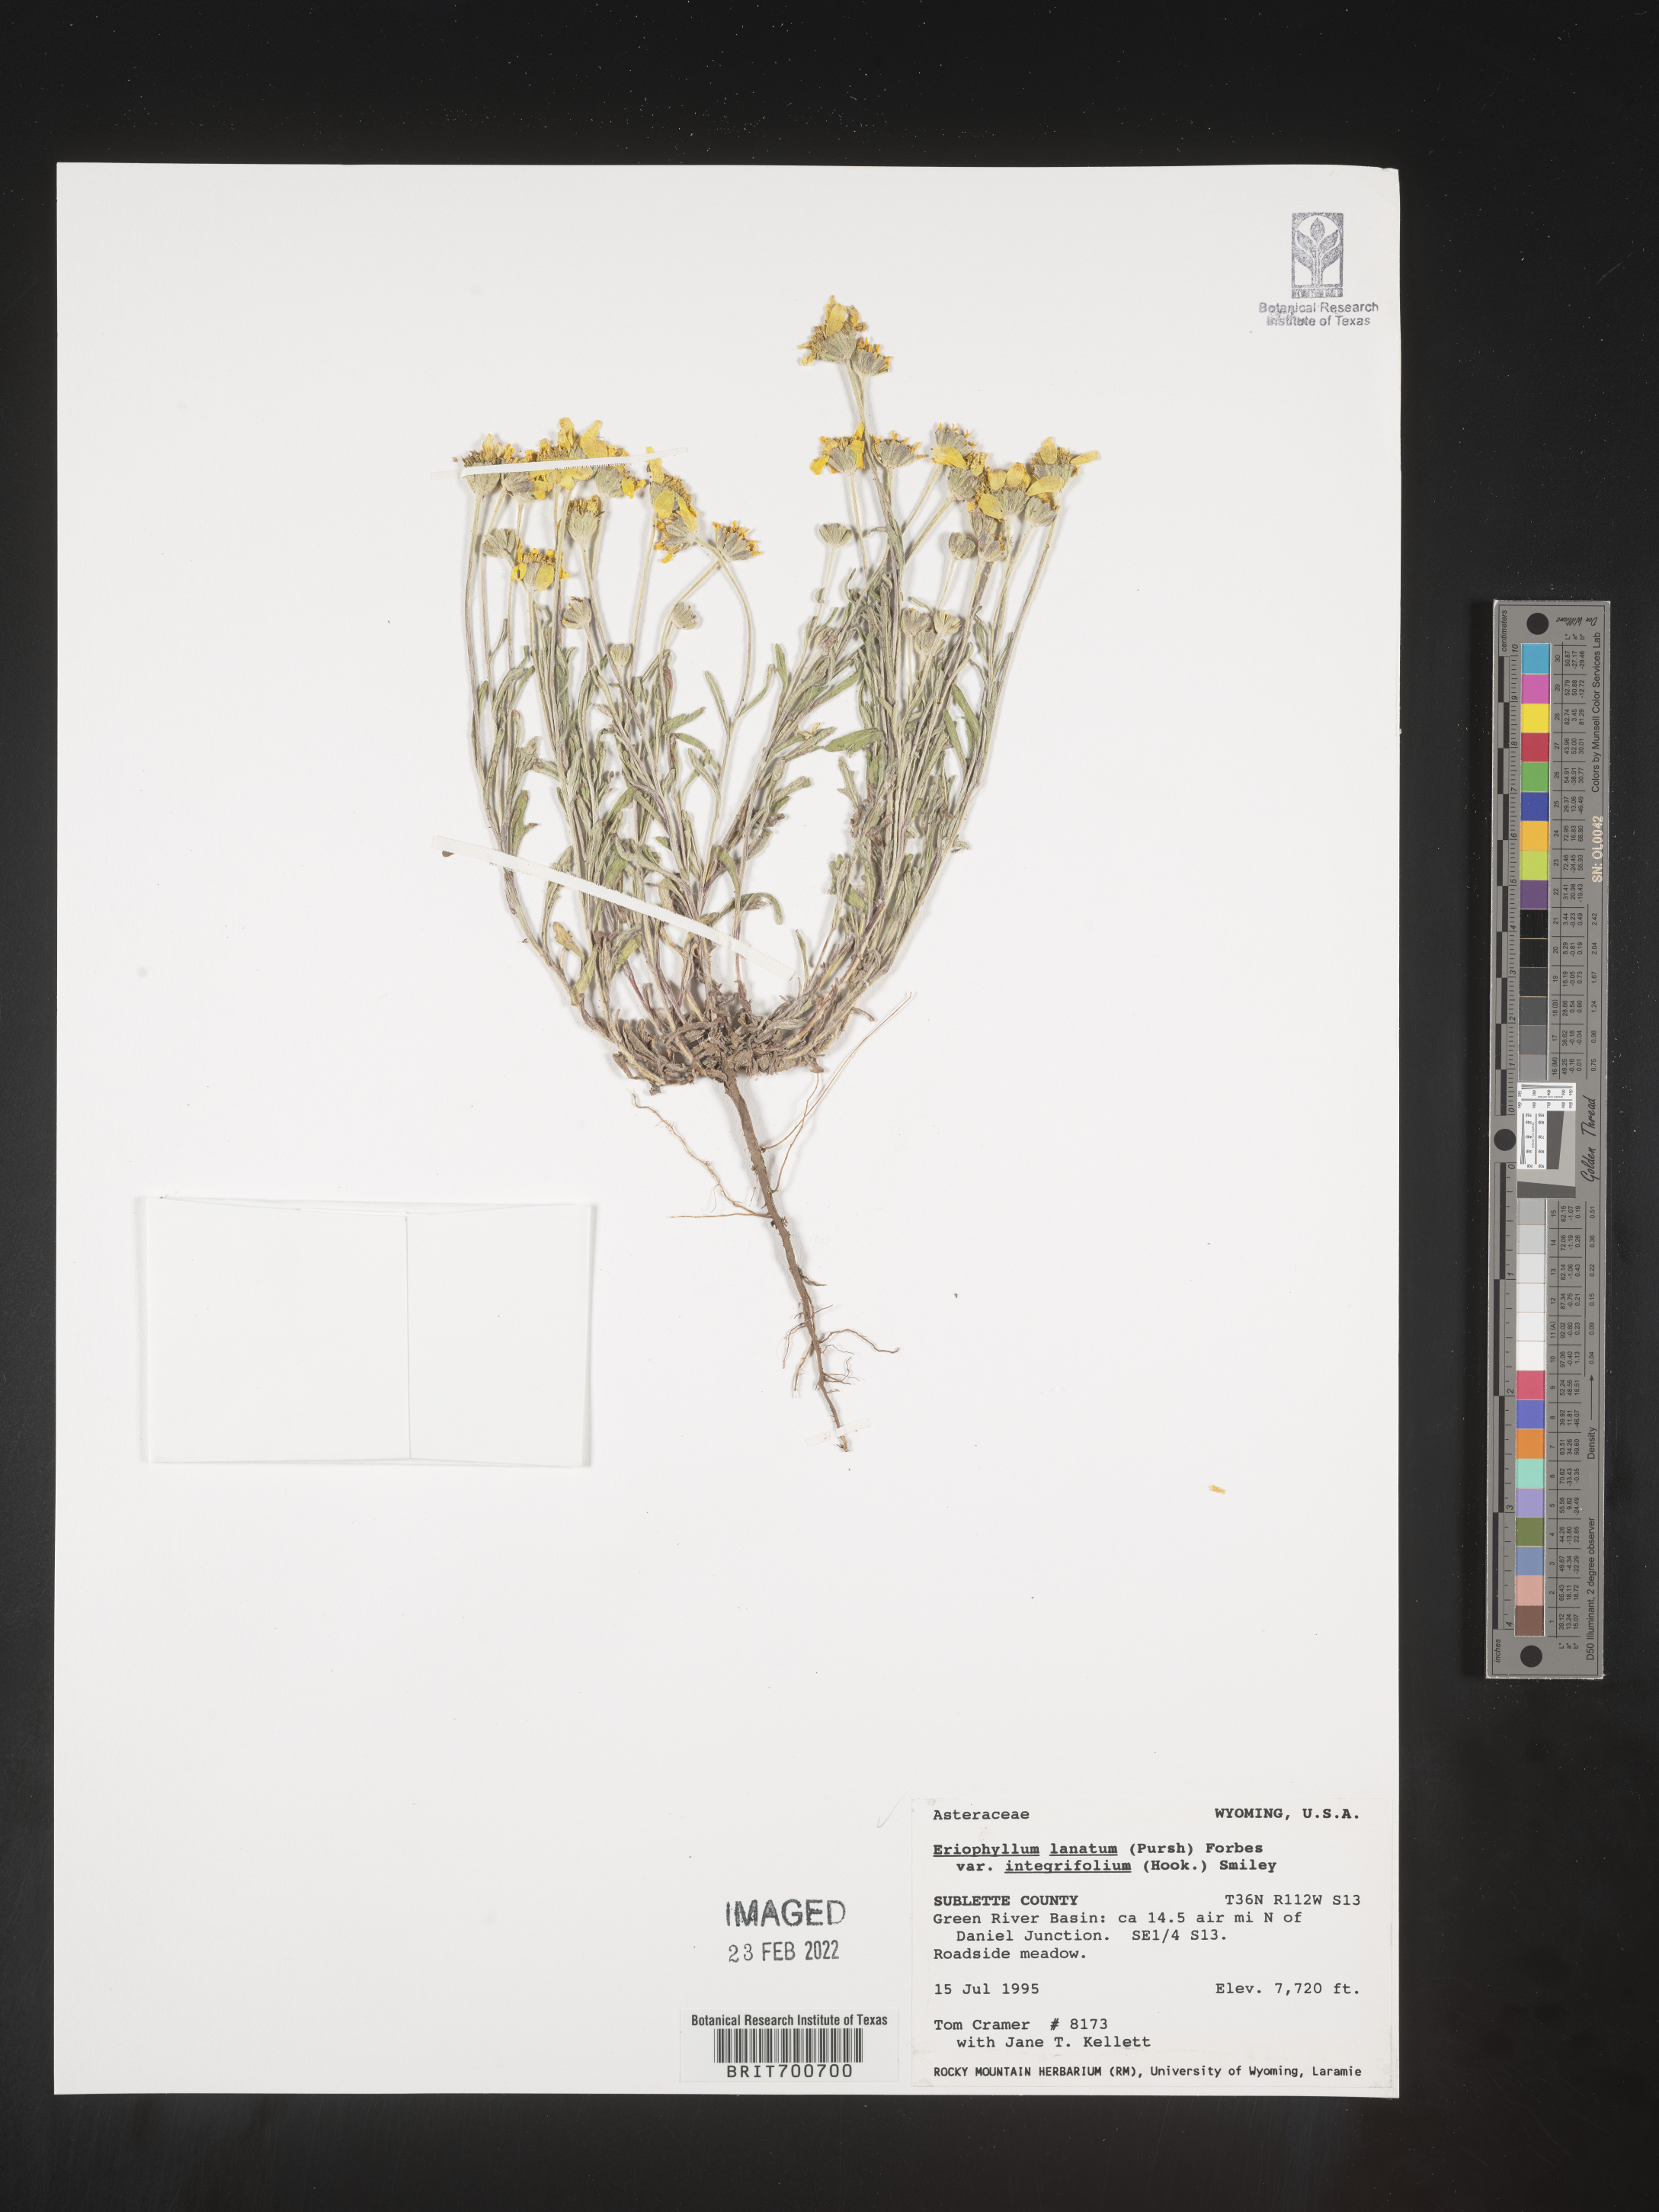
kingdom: Plantae
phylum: Tracheophyta
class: Magnoliopsida
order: Asterales
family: Asteraceae
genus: Eriophyllum
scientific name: Eriophyllum lanatum
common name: Common woolly-sunflower
